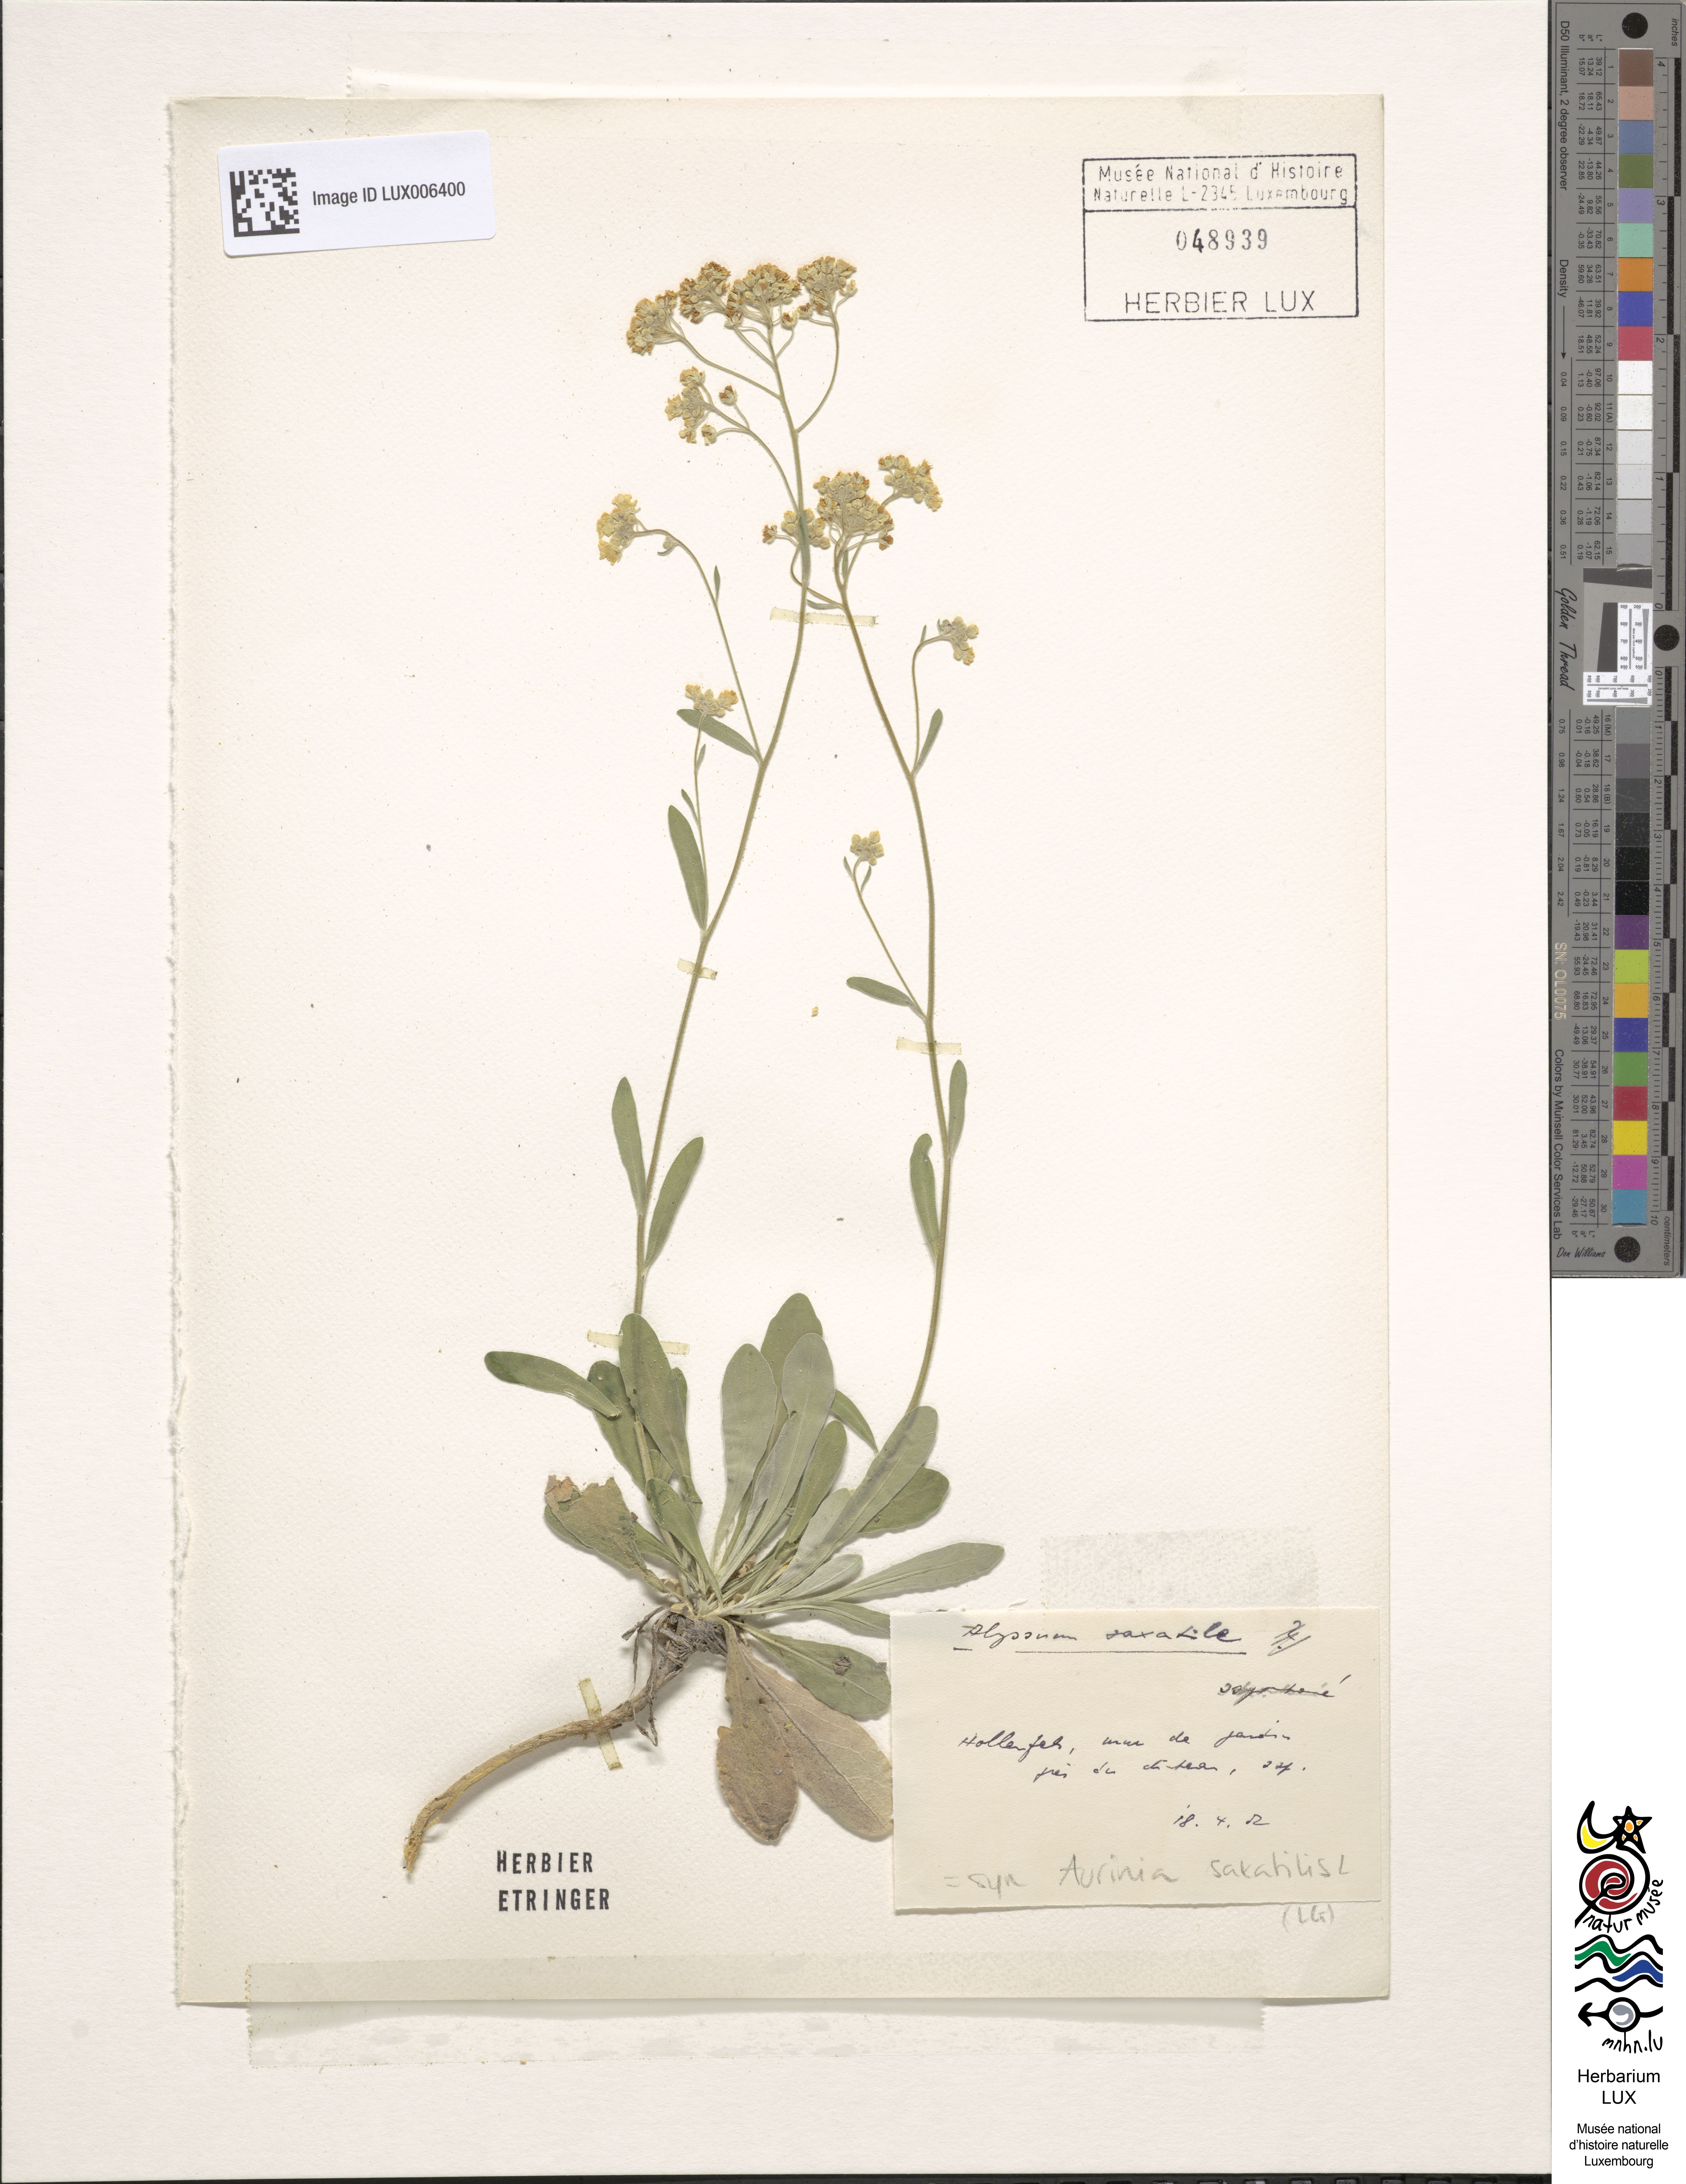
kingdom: Plantae
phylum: Tracheophyta
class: Magnoliopsida
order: Brassicales
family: Brassicaceae
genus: Aurinia
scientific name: Aurinia saxatilis
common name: Golden-tuft alyssum
